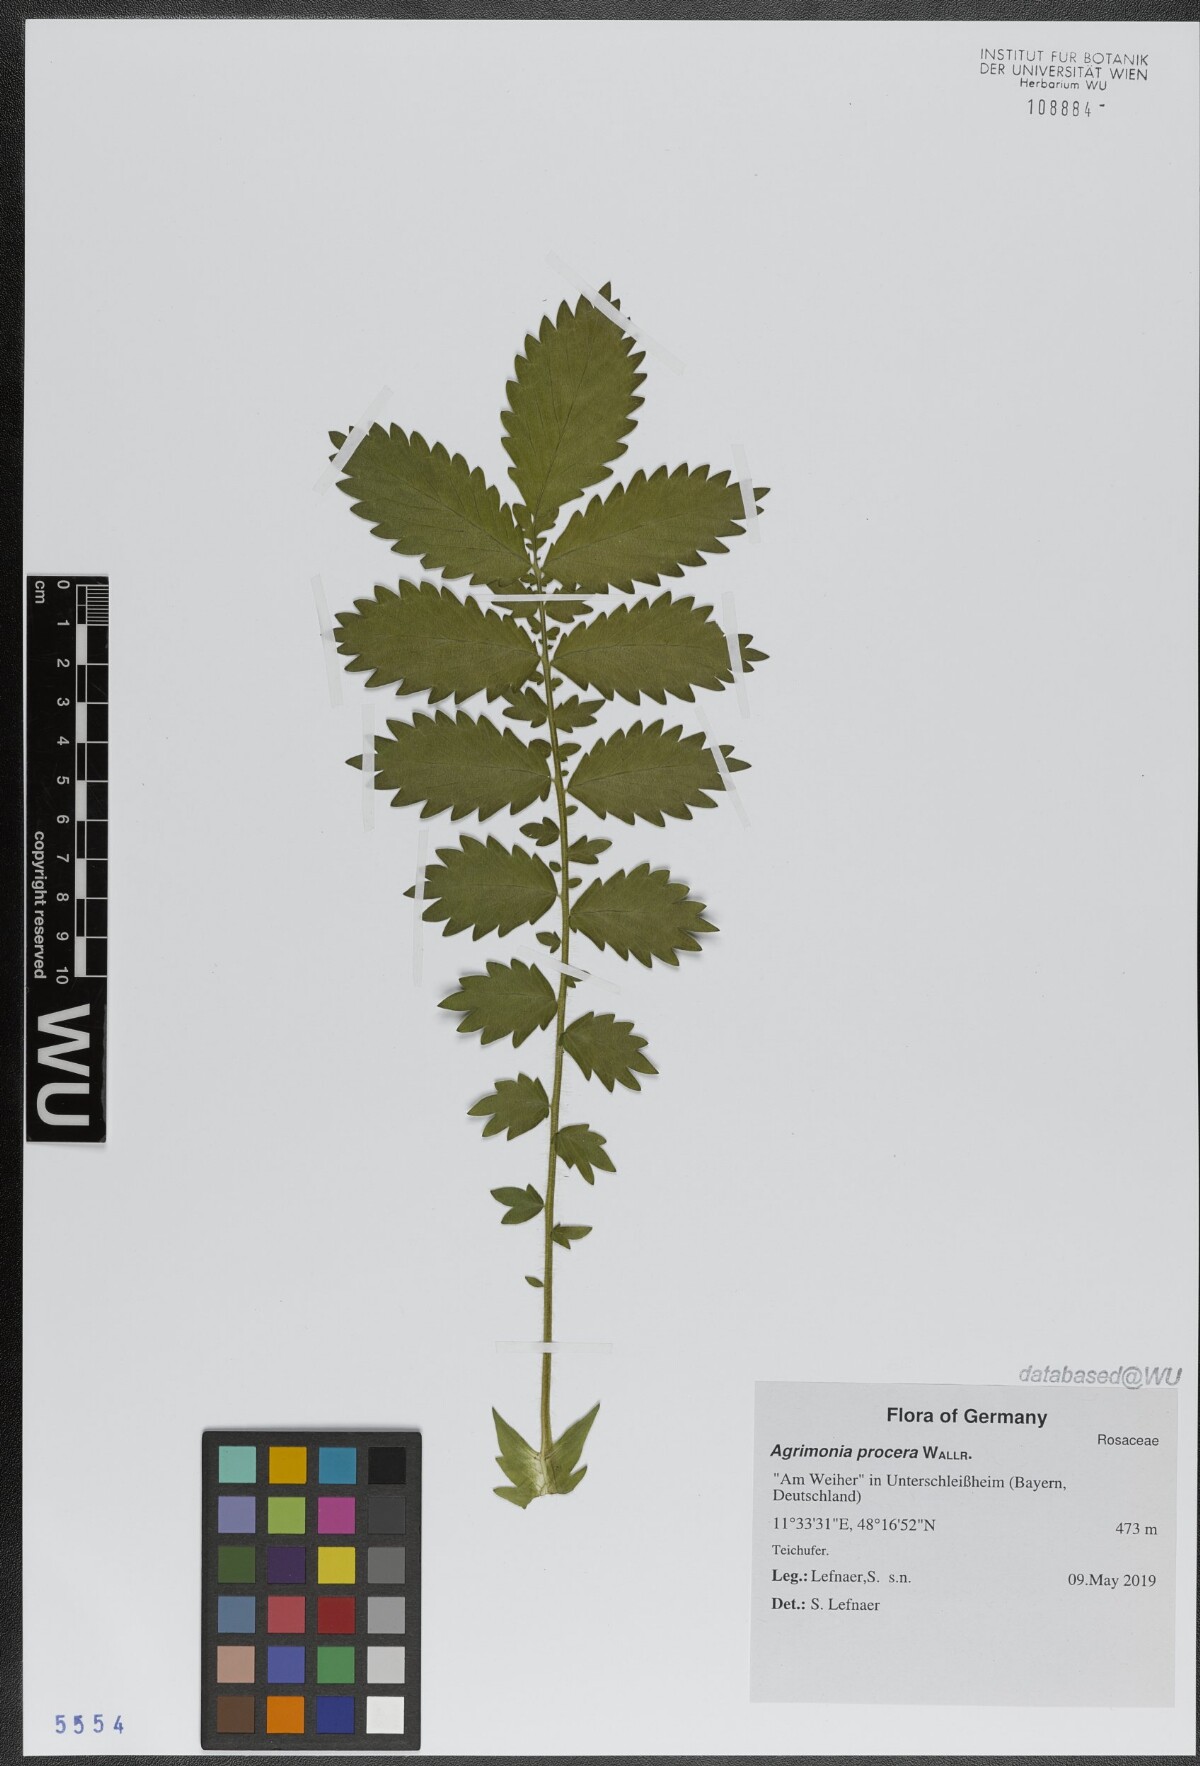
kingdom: Plantae
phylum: Tracheophyta
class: Magnoliopsida
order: Rosales
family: Rosaceae
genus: Agrimonia
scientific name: Agrimonia procera
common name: Fragrant agrimony
